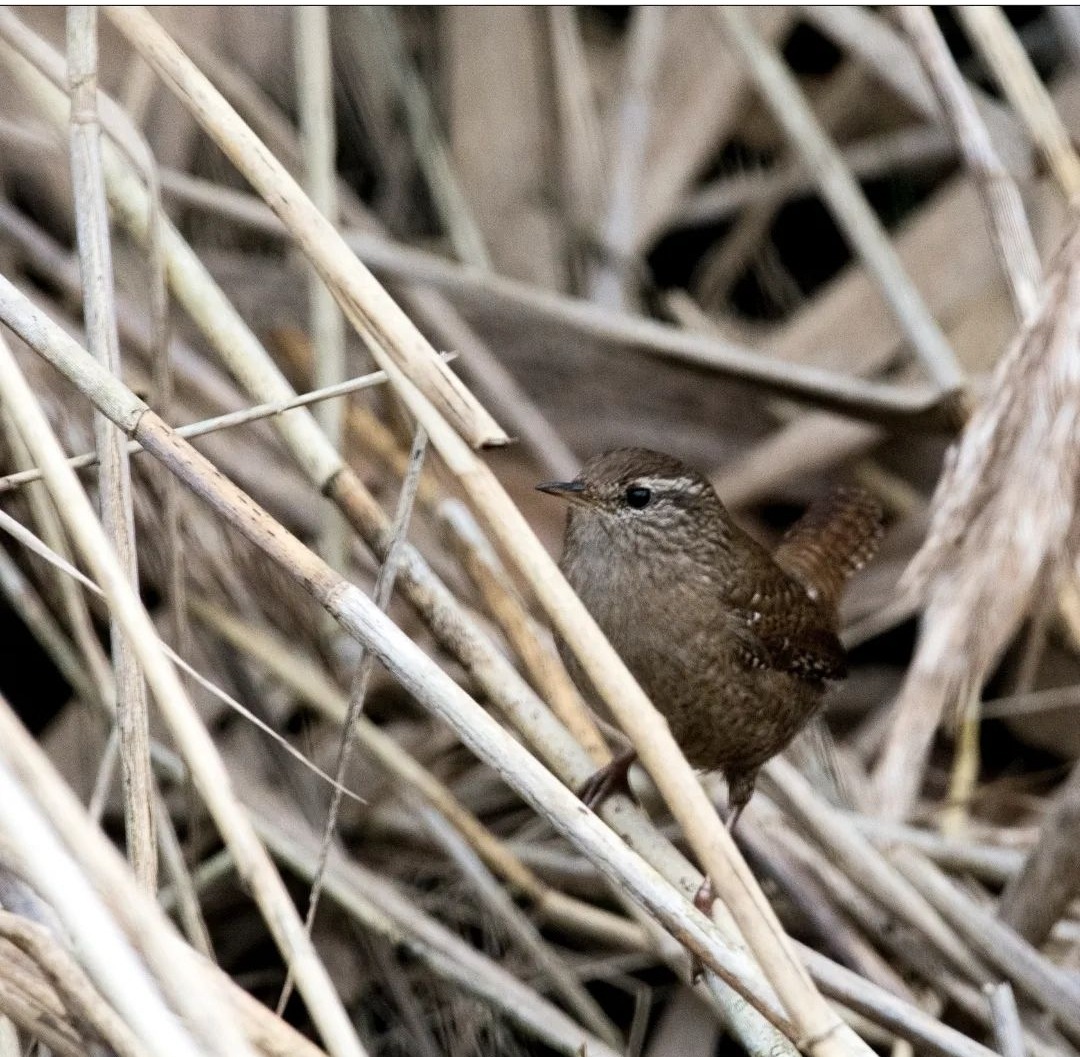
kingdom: Animalia
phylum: Chordata
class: Aves
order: Passeriformes
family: Troglodytidae
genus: Troglodytes
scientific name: Troglodytes troglodytes
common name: Gærdesmutte
